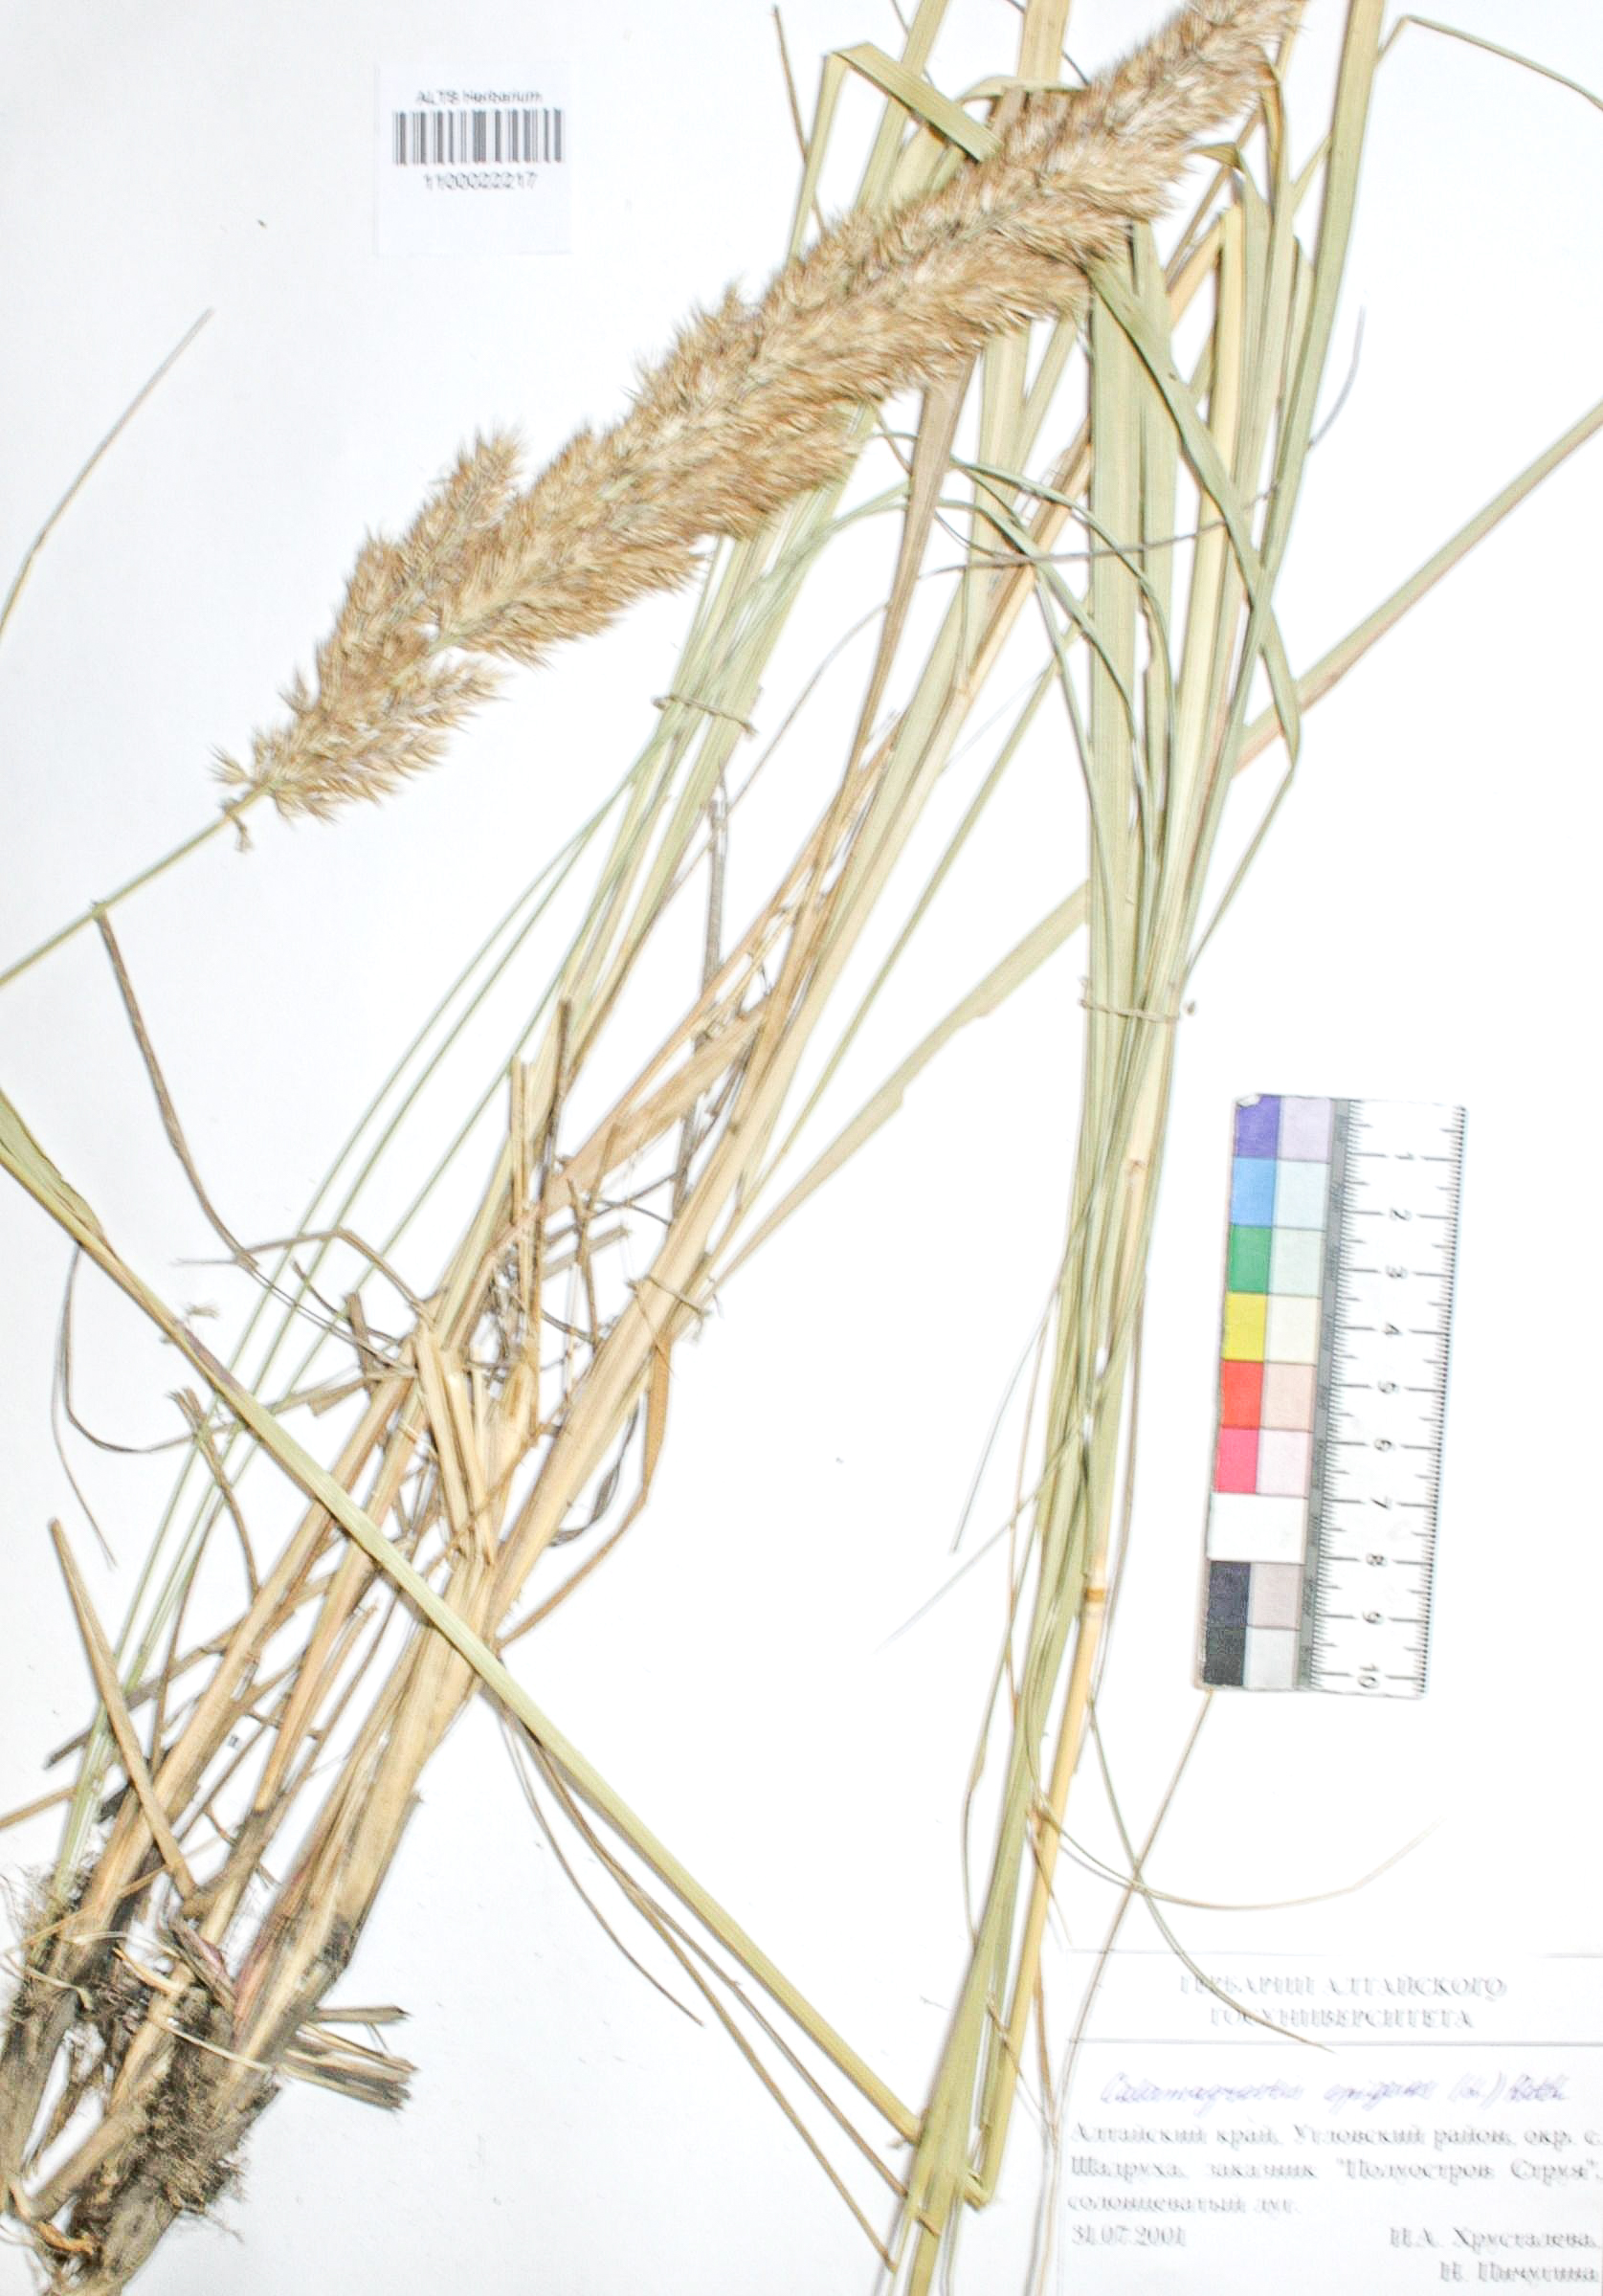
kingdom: Plantae
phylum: Tracheophyta
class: Liliopsida
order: Poales
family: Poaceae
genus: Calamagrostis
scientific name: Calamagrostis epigejos
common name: Wood small-reed
